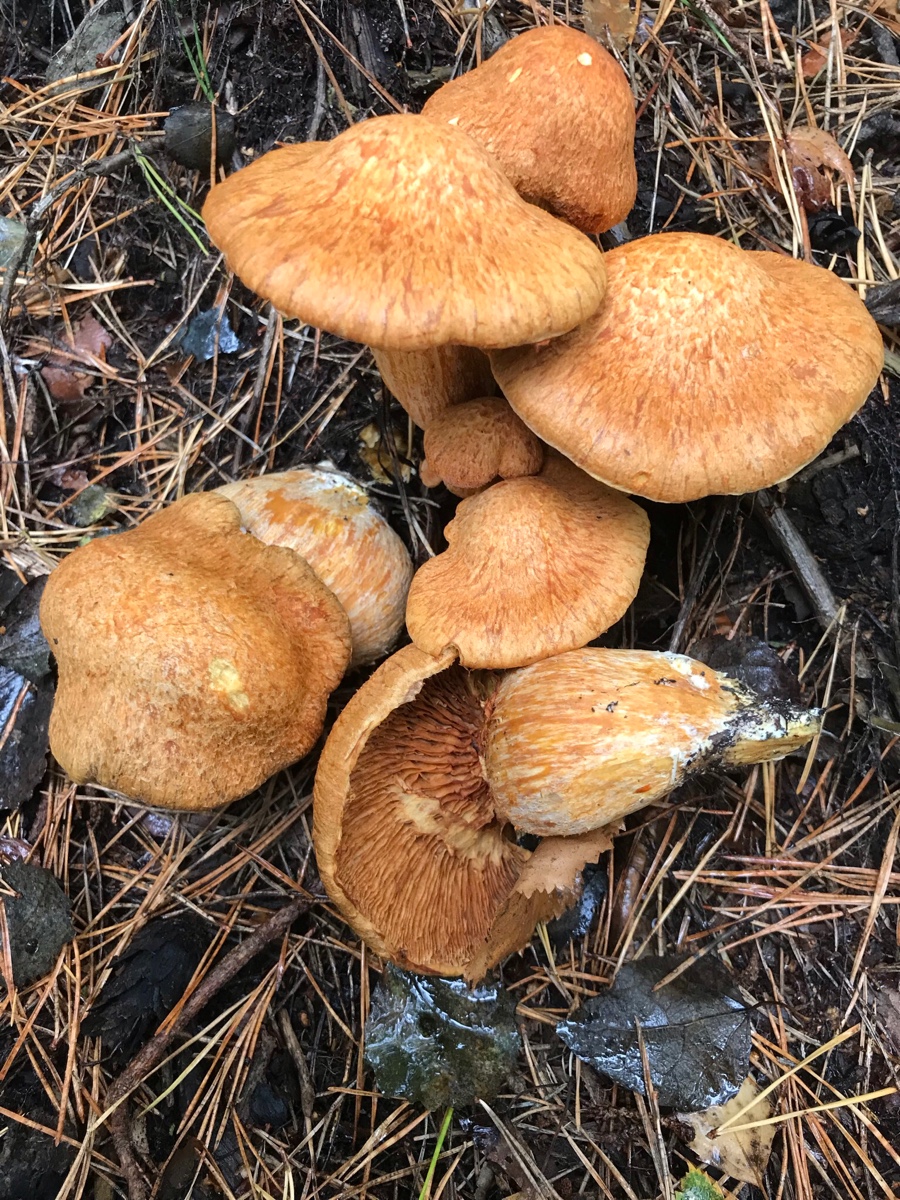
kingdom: Fungi
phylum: Basidiomycota
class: Agaricomycetes
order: Agaricales
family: Hymenogastraceae
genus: Gymnopilus
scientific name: Gymnopilus spectabilis
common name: fibret flammehat
